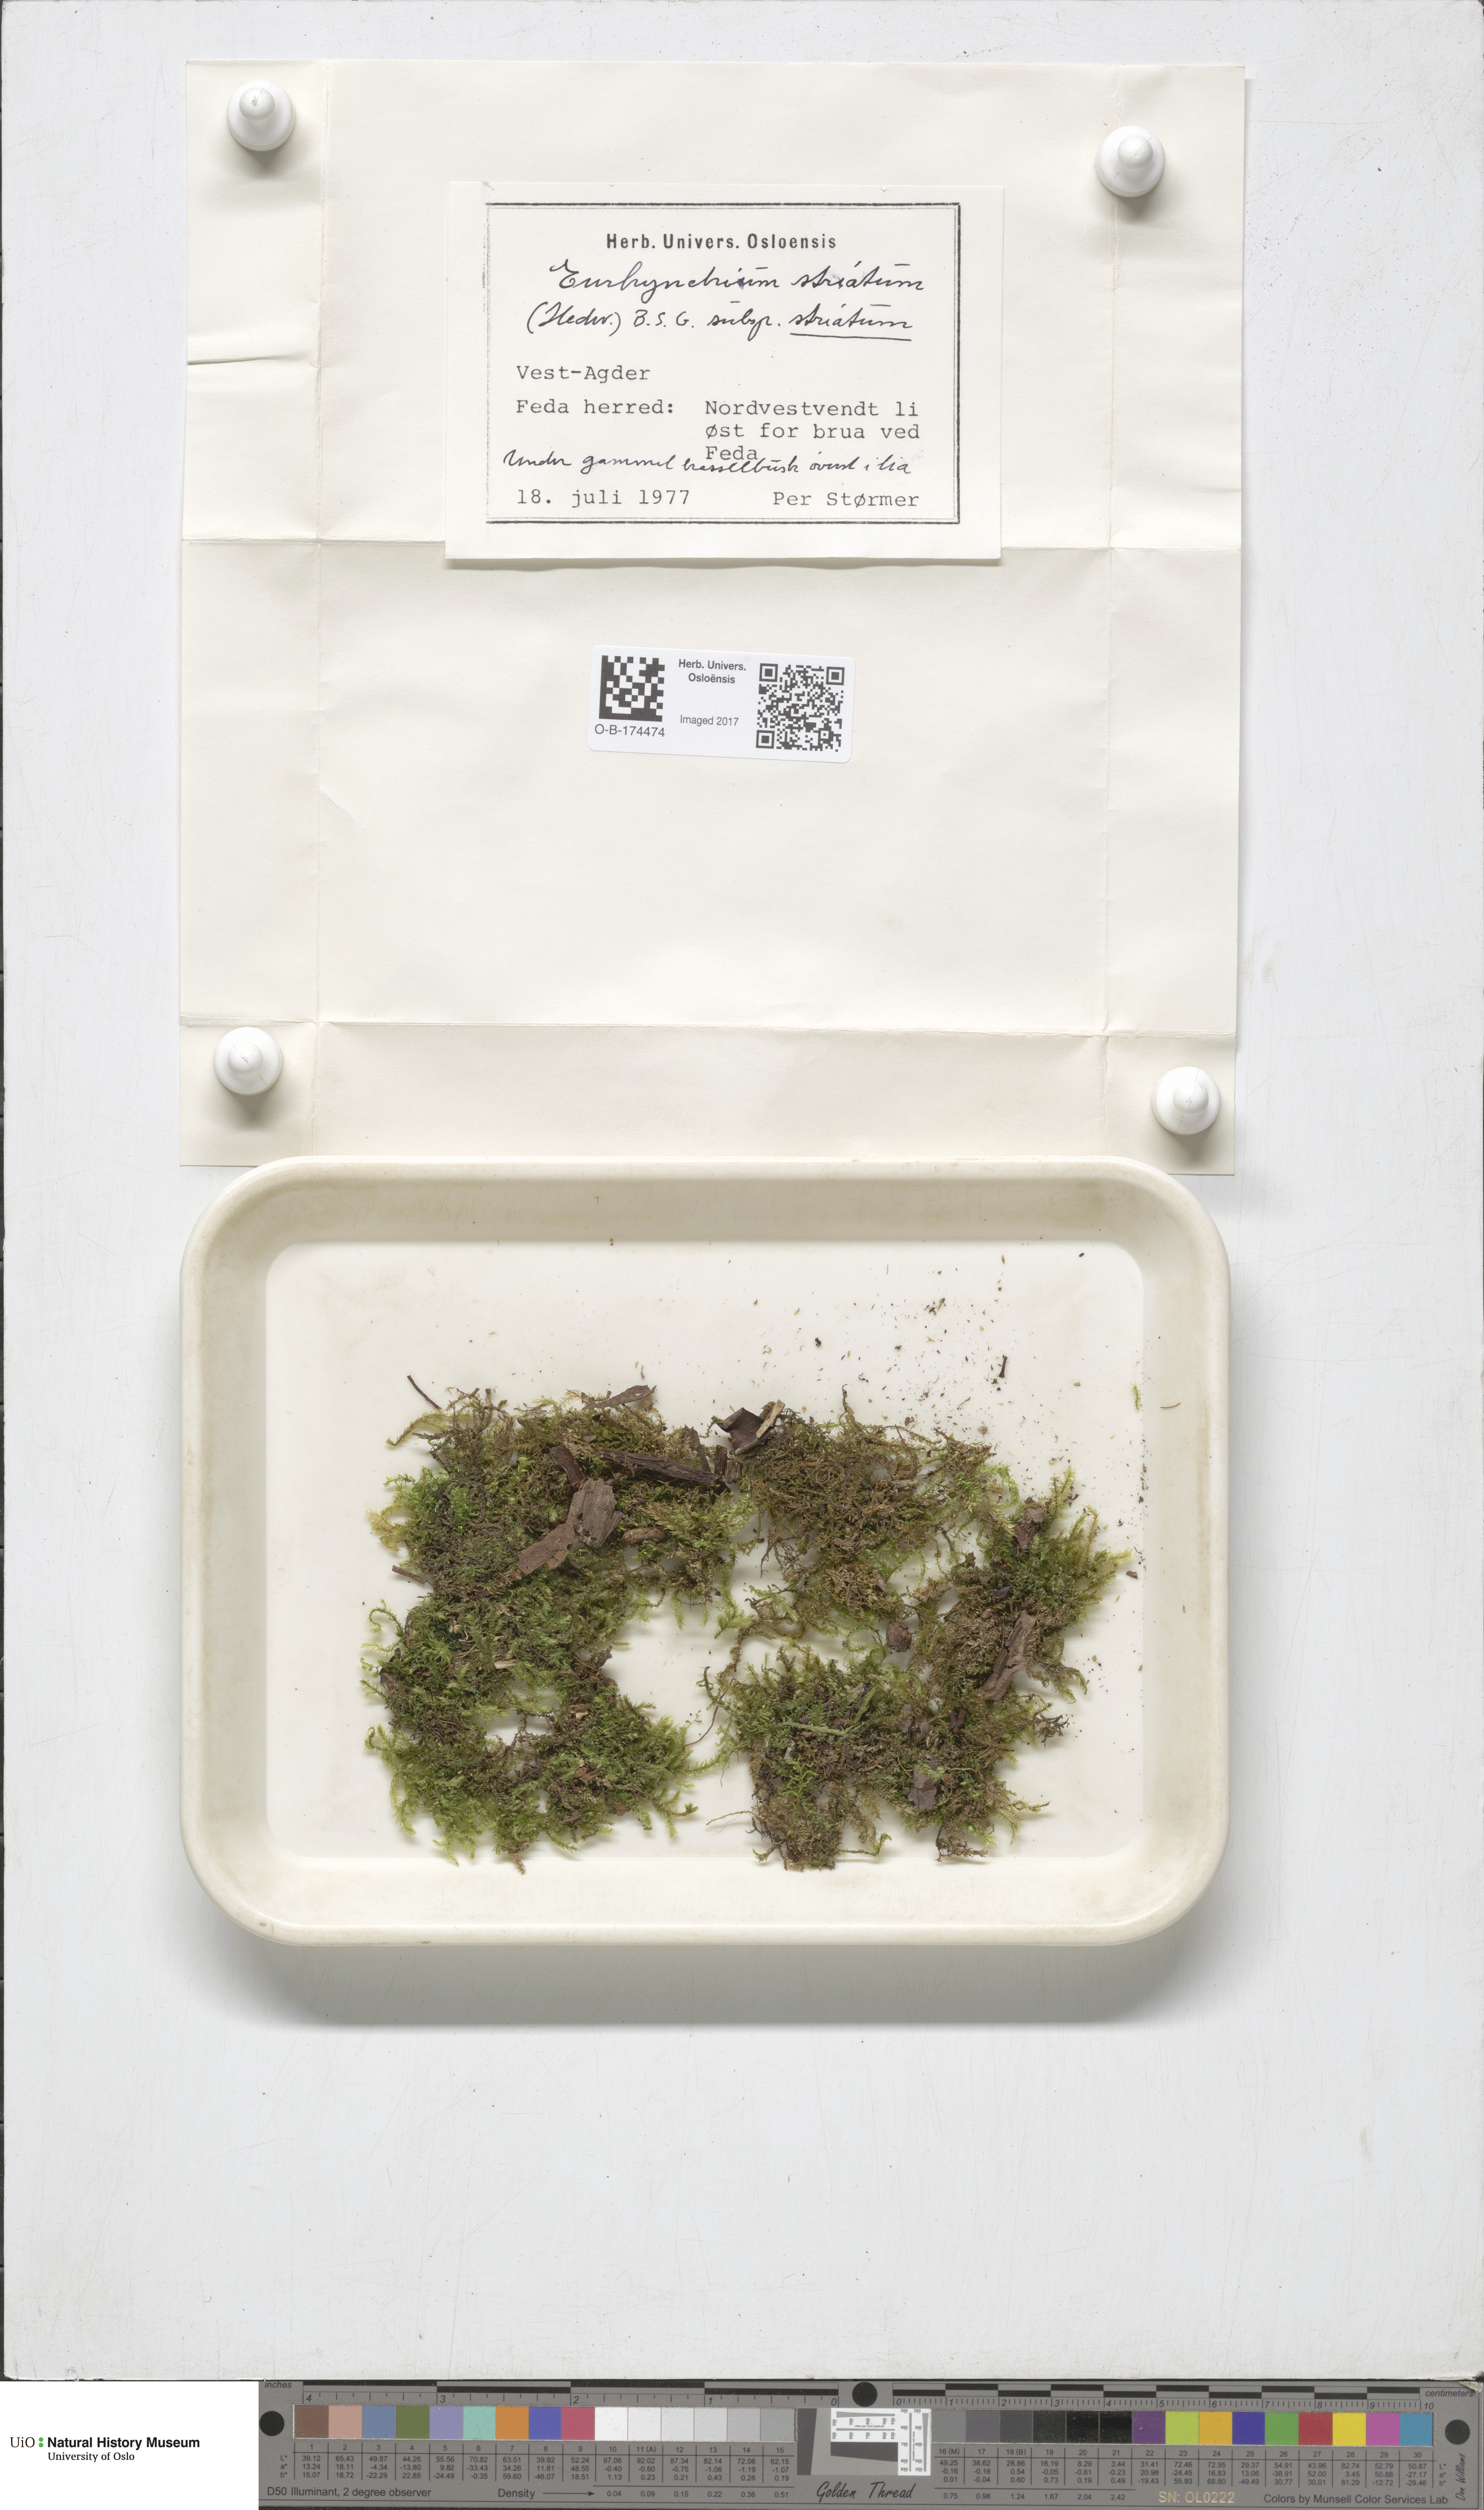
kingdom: Plantae
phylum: Bryophyta
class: Bryopsida
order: Hypnales
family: Brachytheciaceae
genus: Eurhynchium
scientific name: Eurhynchium striatum
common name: Common striated feather-moss
